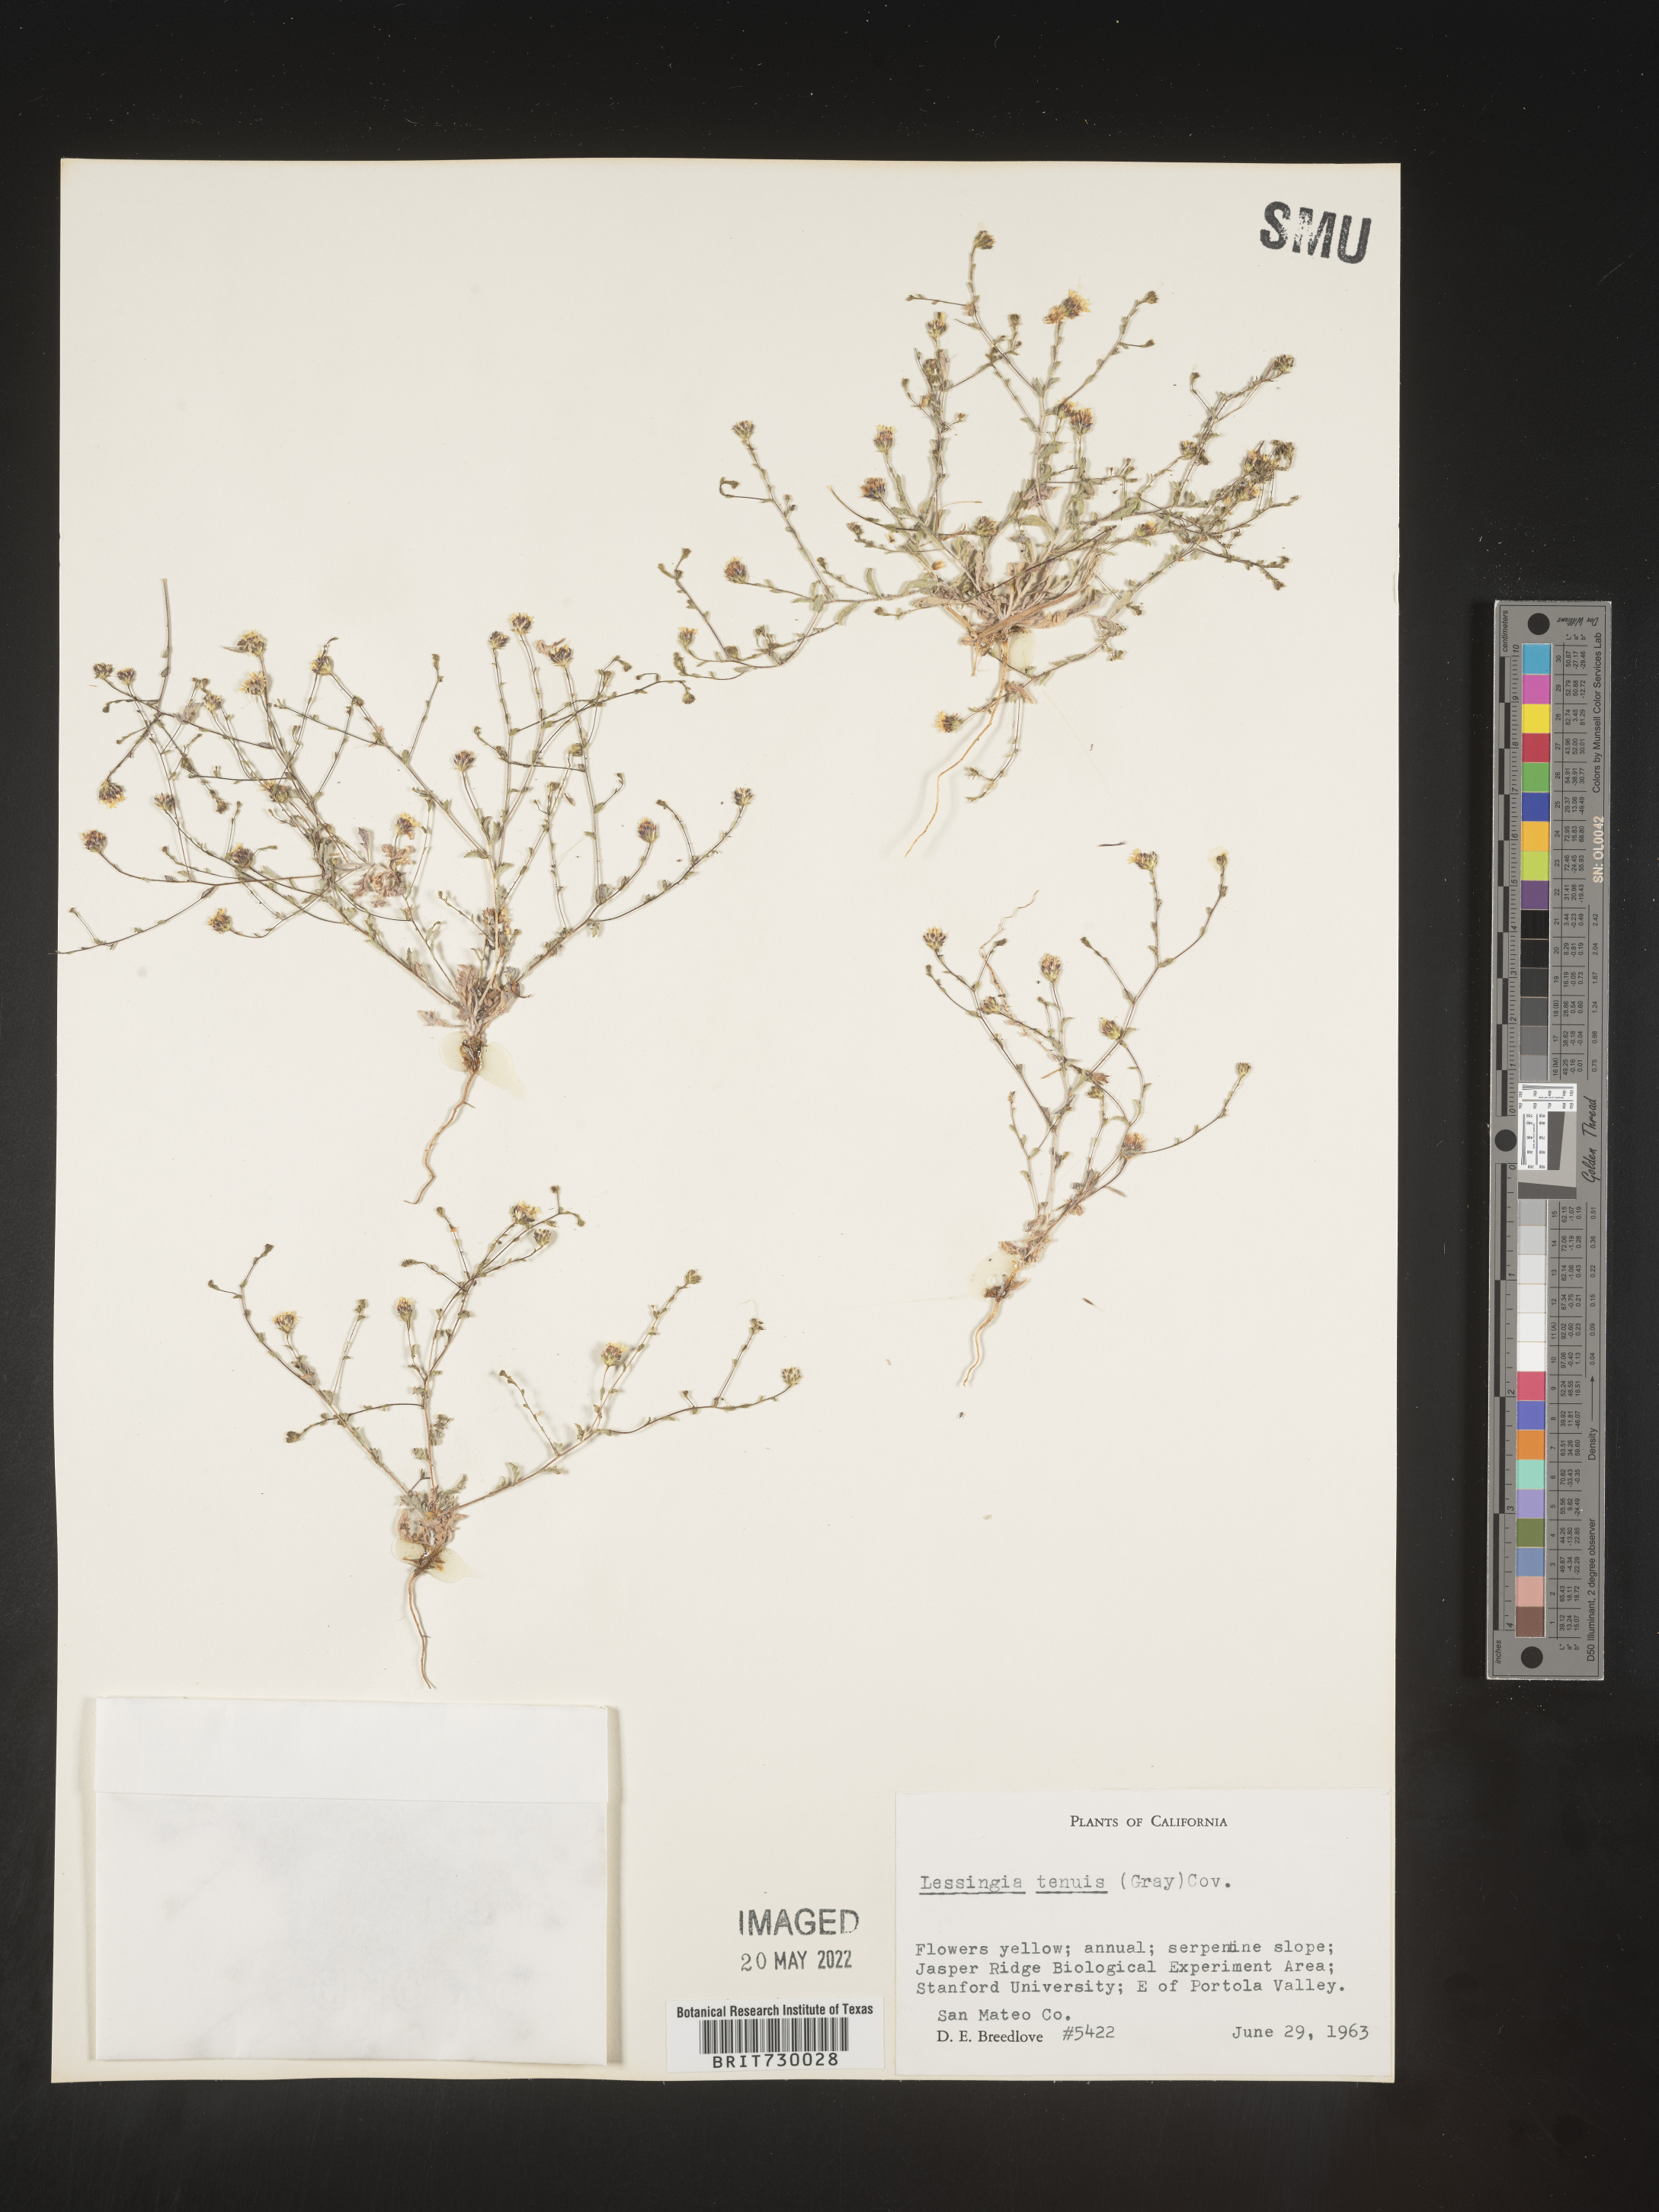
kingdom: Plantae
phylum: Tracheophyta
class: Magnoliopsida
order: Asterales
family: Asteraceae
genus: Lessingia
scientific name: Lessingia
